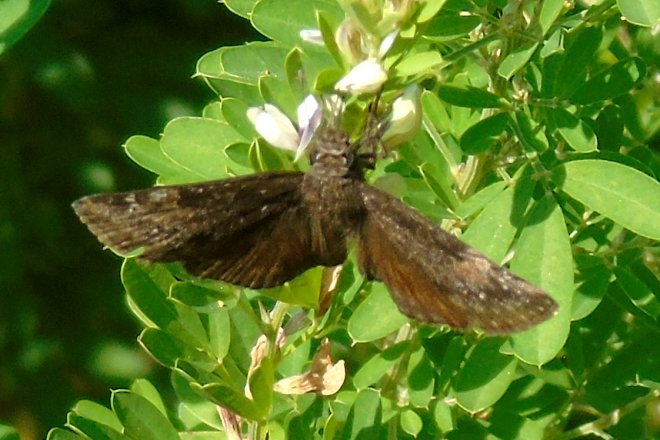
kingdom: Animalia
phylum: Arthropoda
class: Insecta
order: Lepidoptera
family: Hesperiidae
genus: Gesta
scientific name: Gesta
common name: Juvenal's Duskywing
